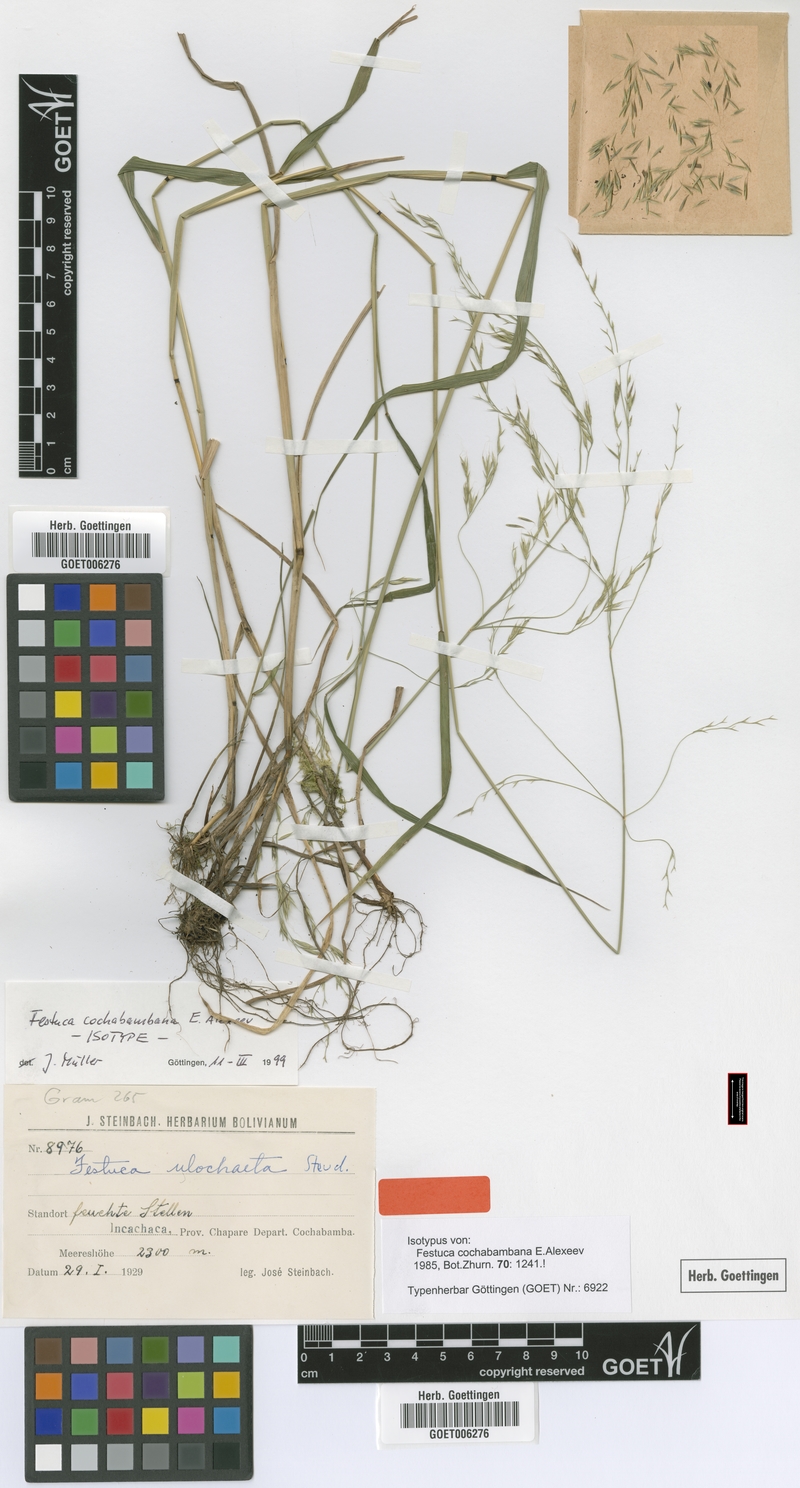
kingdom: Plantae
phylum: Tracheophyta
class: Liliopsida
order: Poales
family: Poaceae
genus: Festuca
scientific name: Festuca cochabambana
